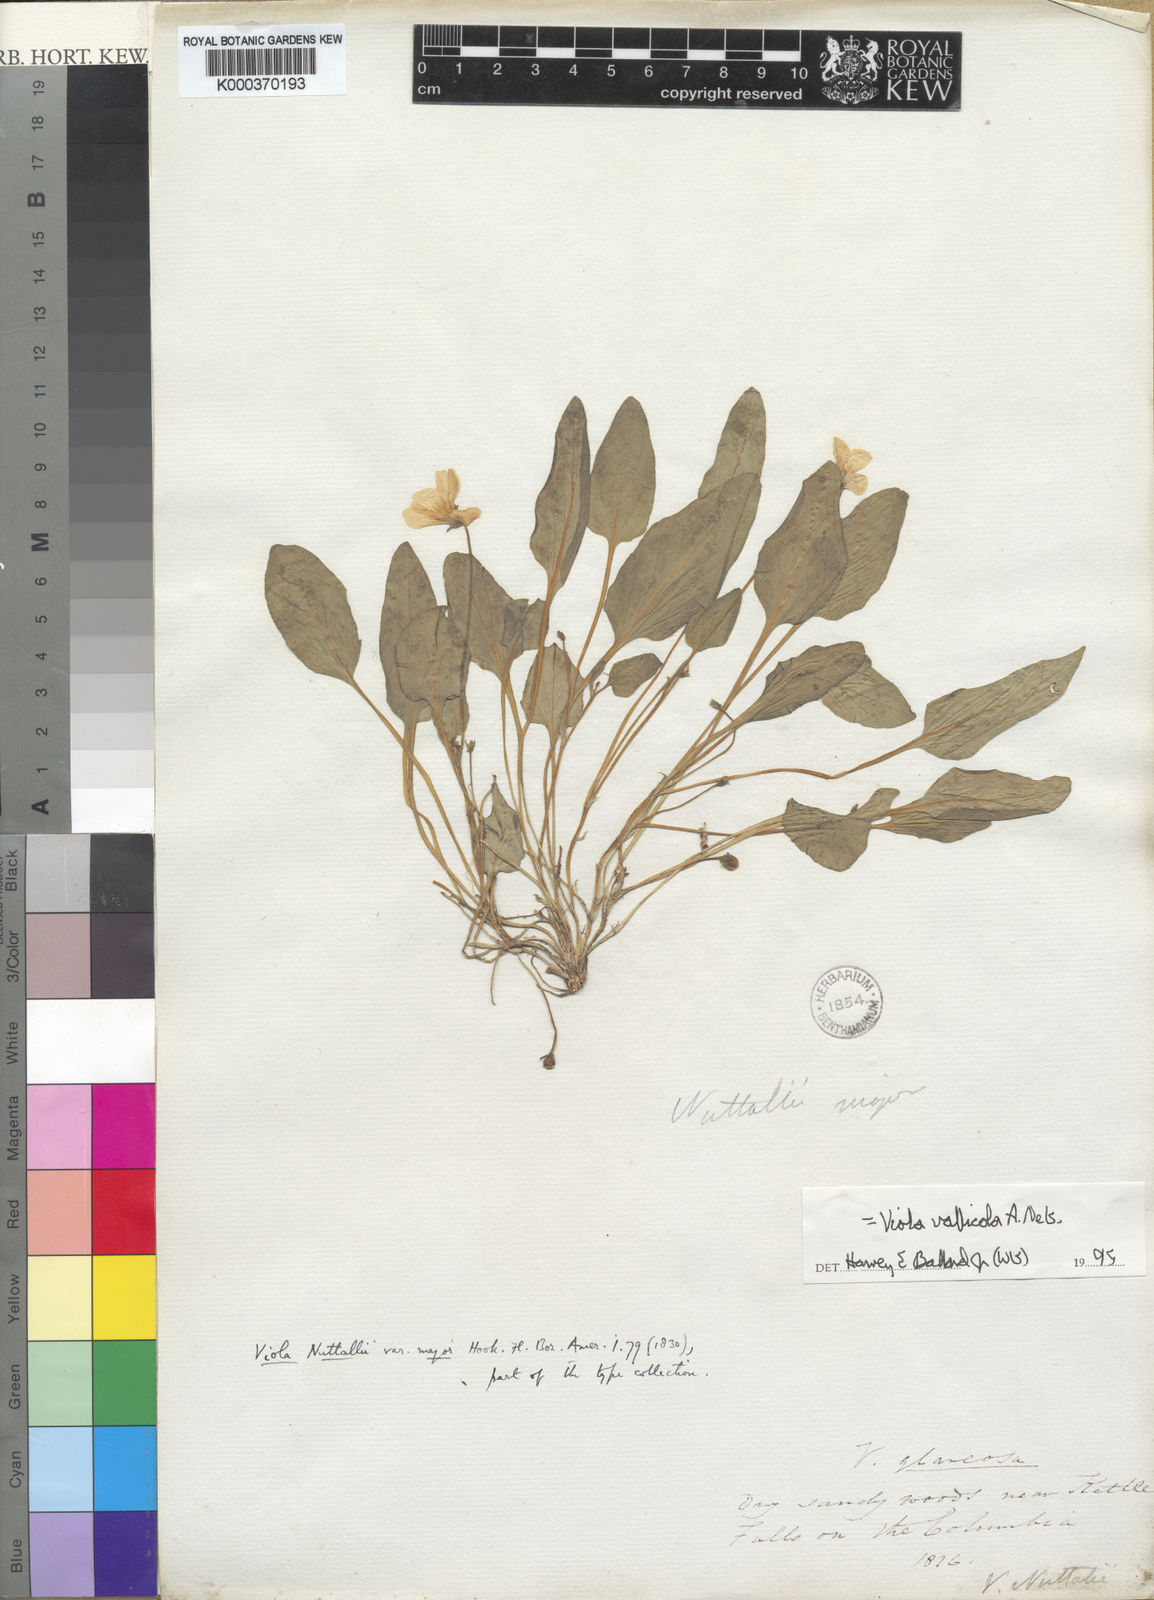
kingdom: Plantae
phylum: Tracheophyta
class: Magnoliopsida
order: Malpighiales
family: Violaceae
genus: Viola
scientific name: Viola vallicola
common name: Valley violet
